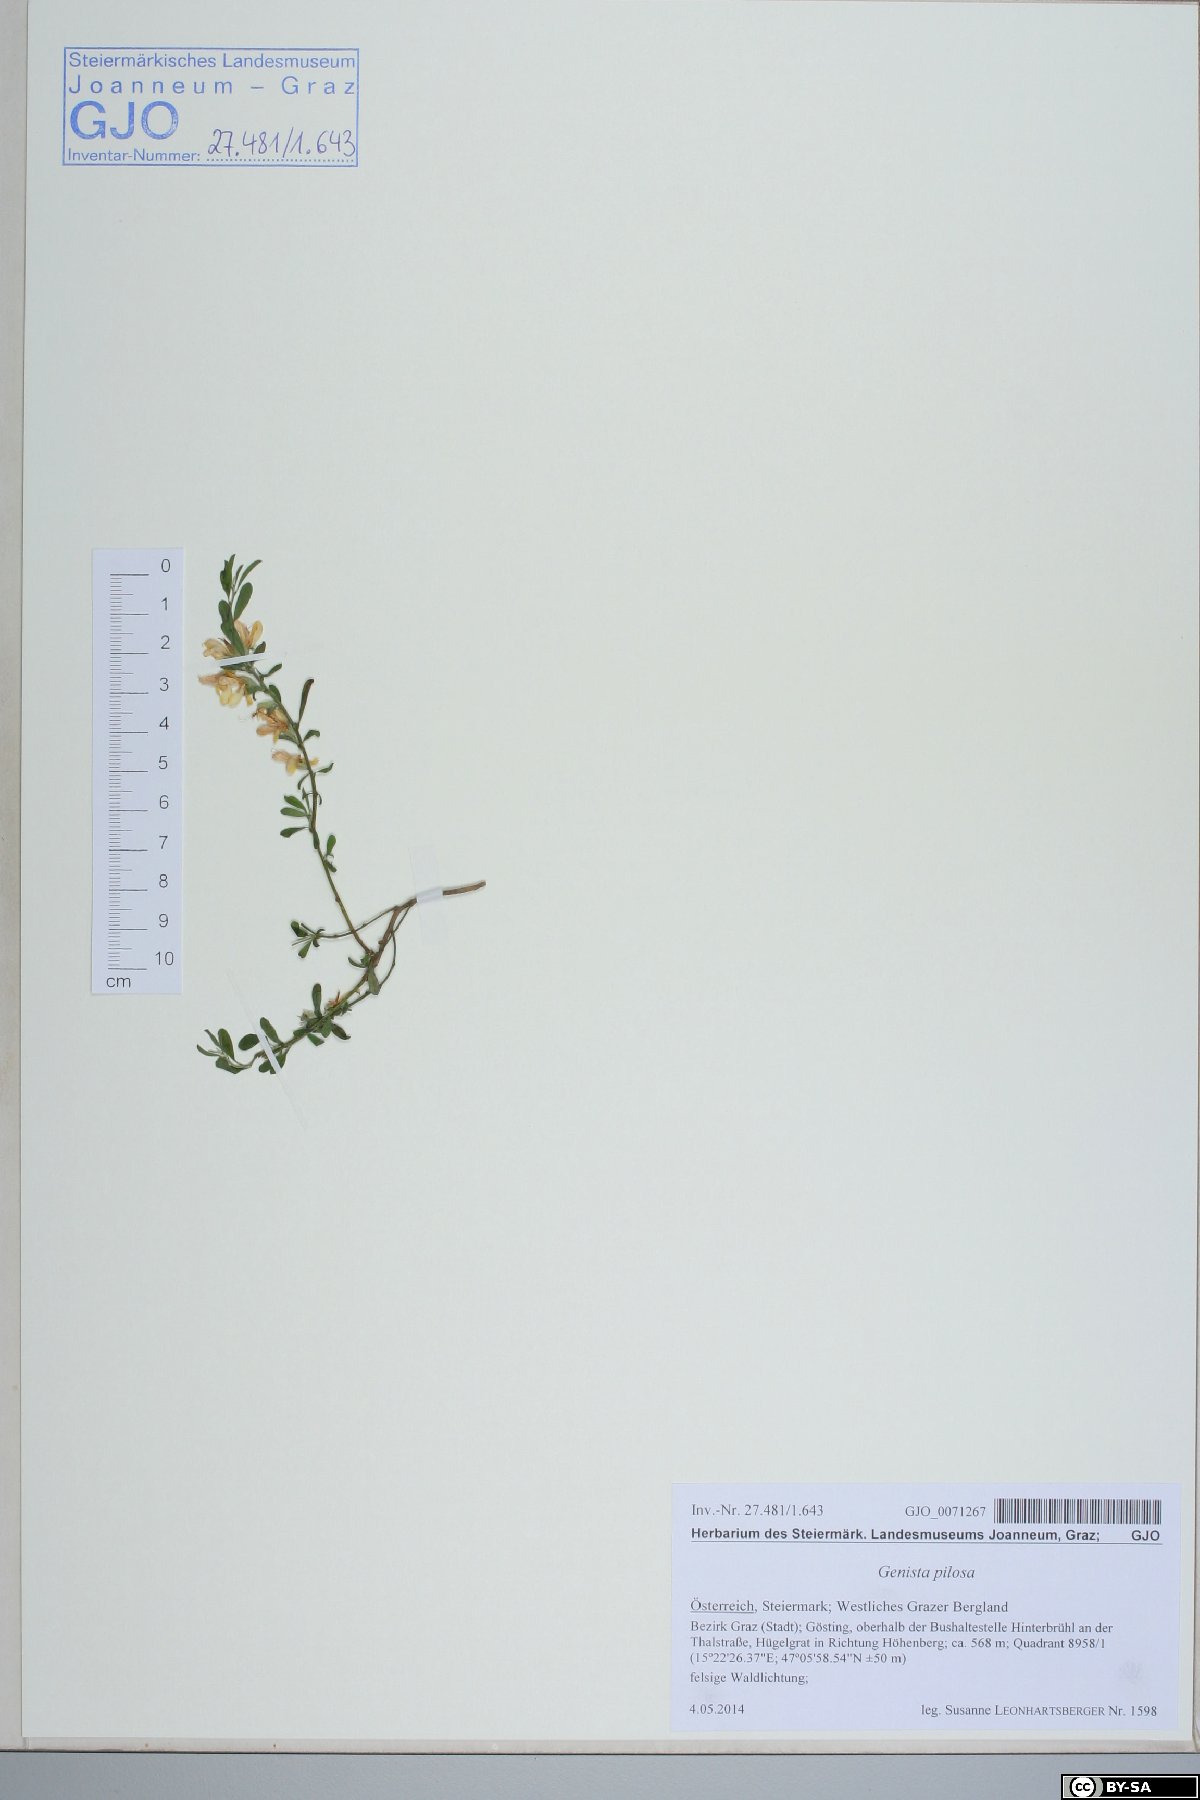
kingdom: Plantae
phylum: Tracheophyta
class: Magnoliopsida
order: Fabales
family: Fabaceae
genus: Genista
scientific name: Genista pilosa
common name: Hairy greenweed
